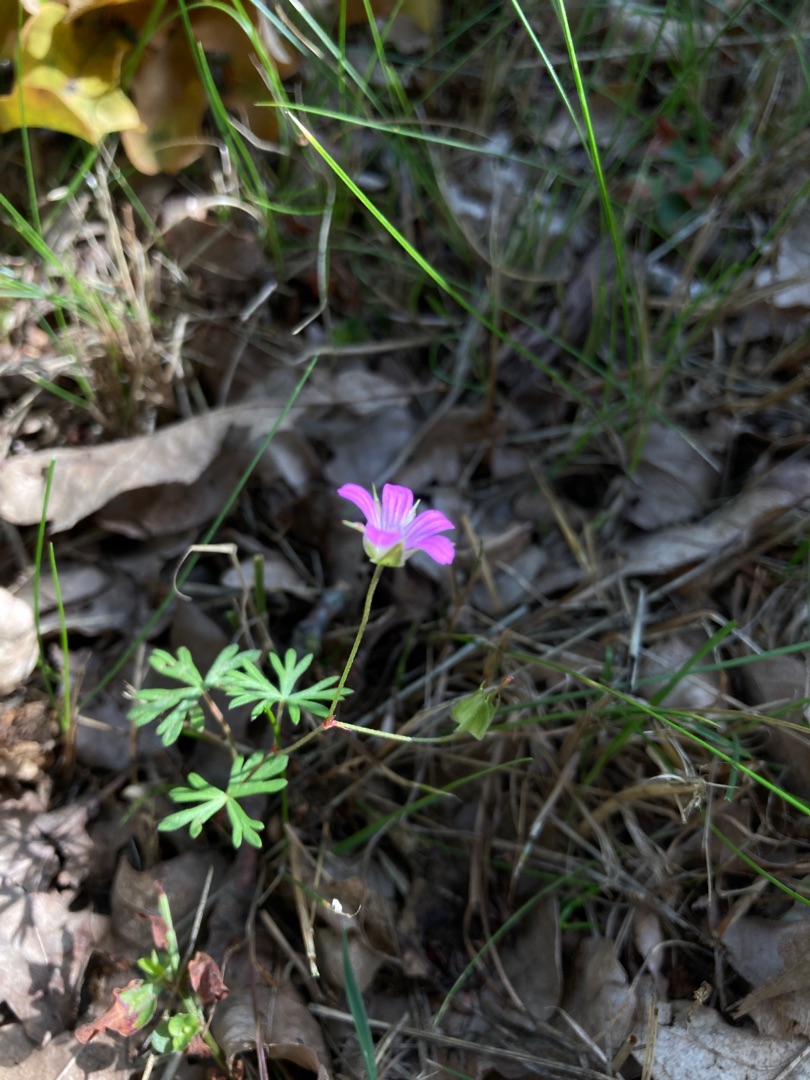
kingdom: Plantae
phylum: Tracheophyta
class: Magnoliopsida
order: Geraniales
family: Geraniaceae
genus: Geranium
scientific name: Geranium columbinum
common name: Storbægret storkenæb
